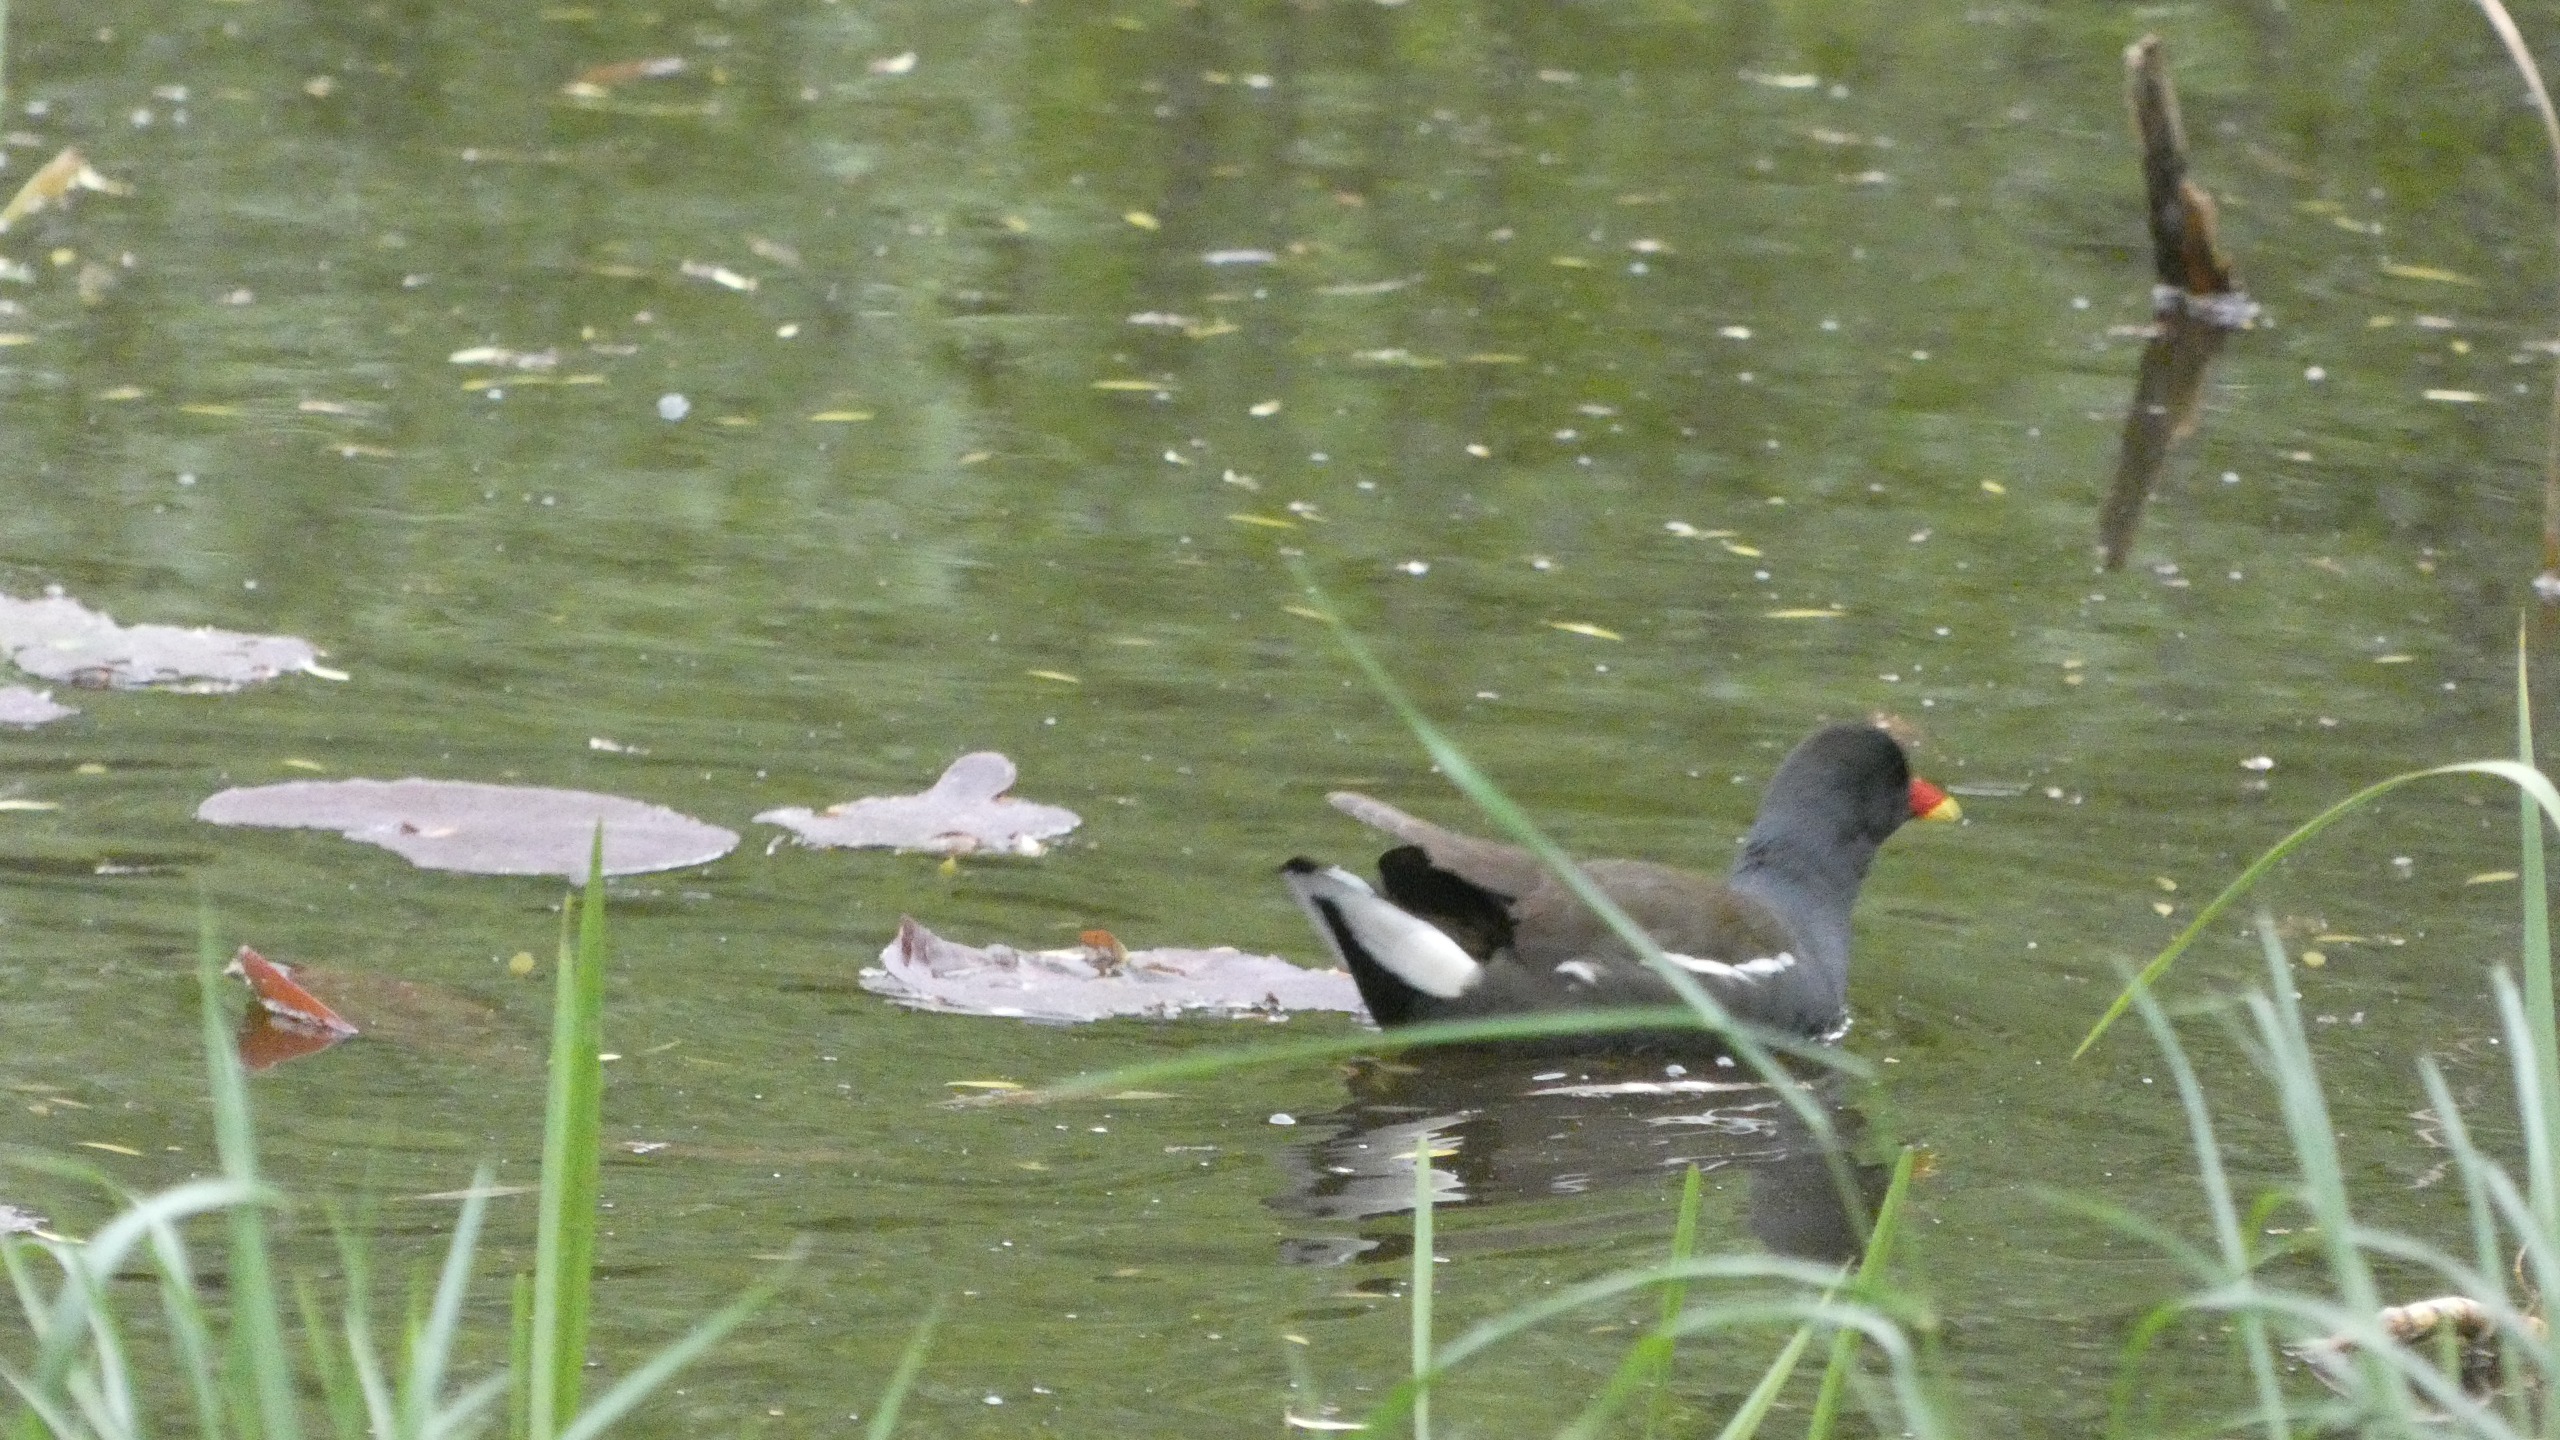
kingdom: Animalia
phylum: Chordata
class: Aves
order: Gruiformes
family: Rallidae
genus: Gallinula
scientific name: Gallinula chloropus
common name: Grønbenet rørhøne
